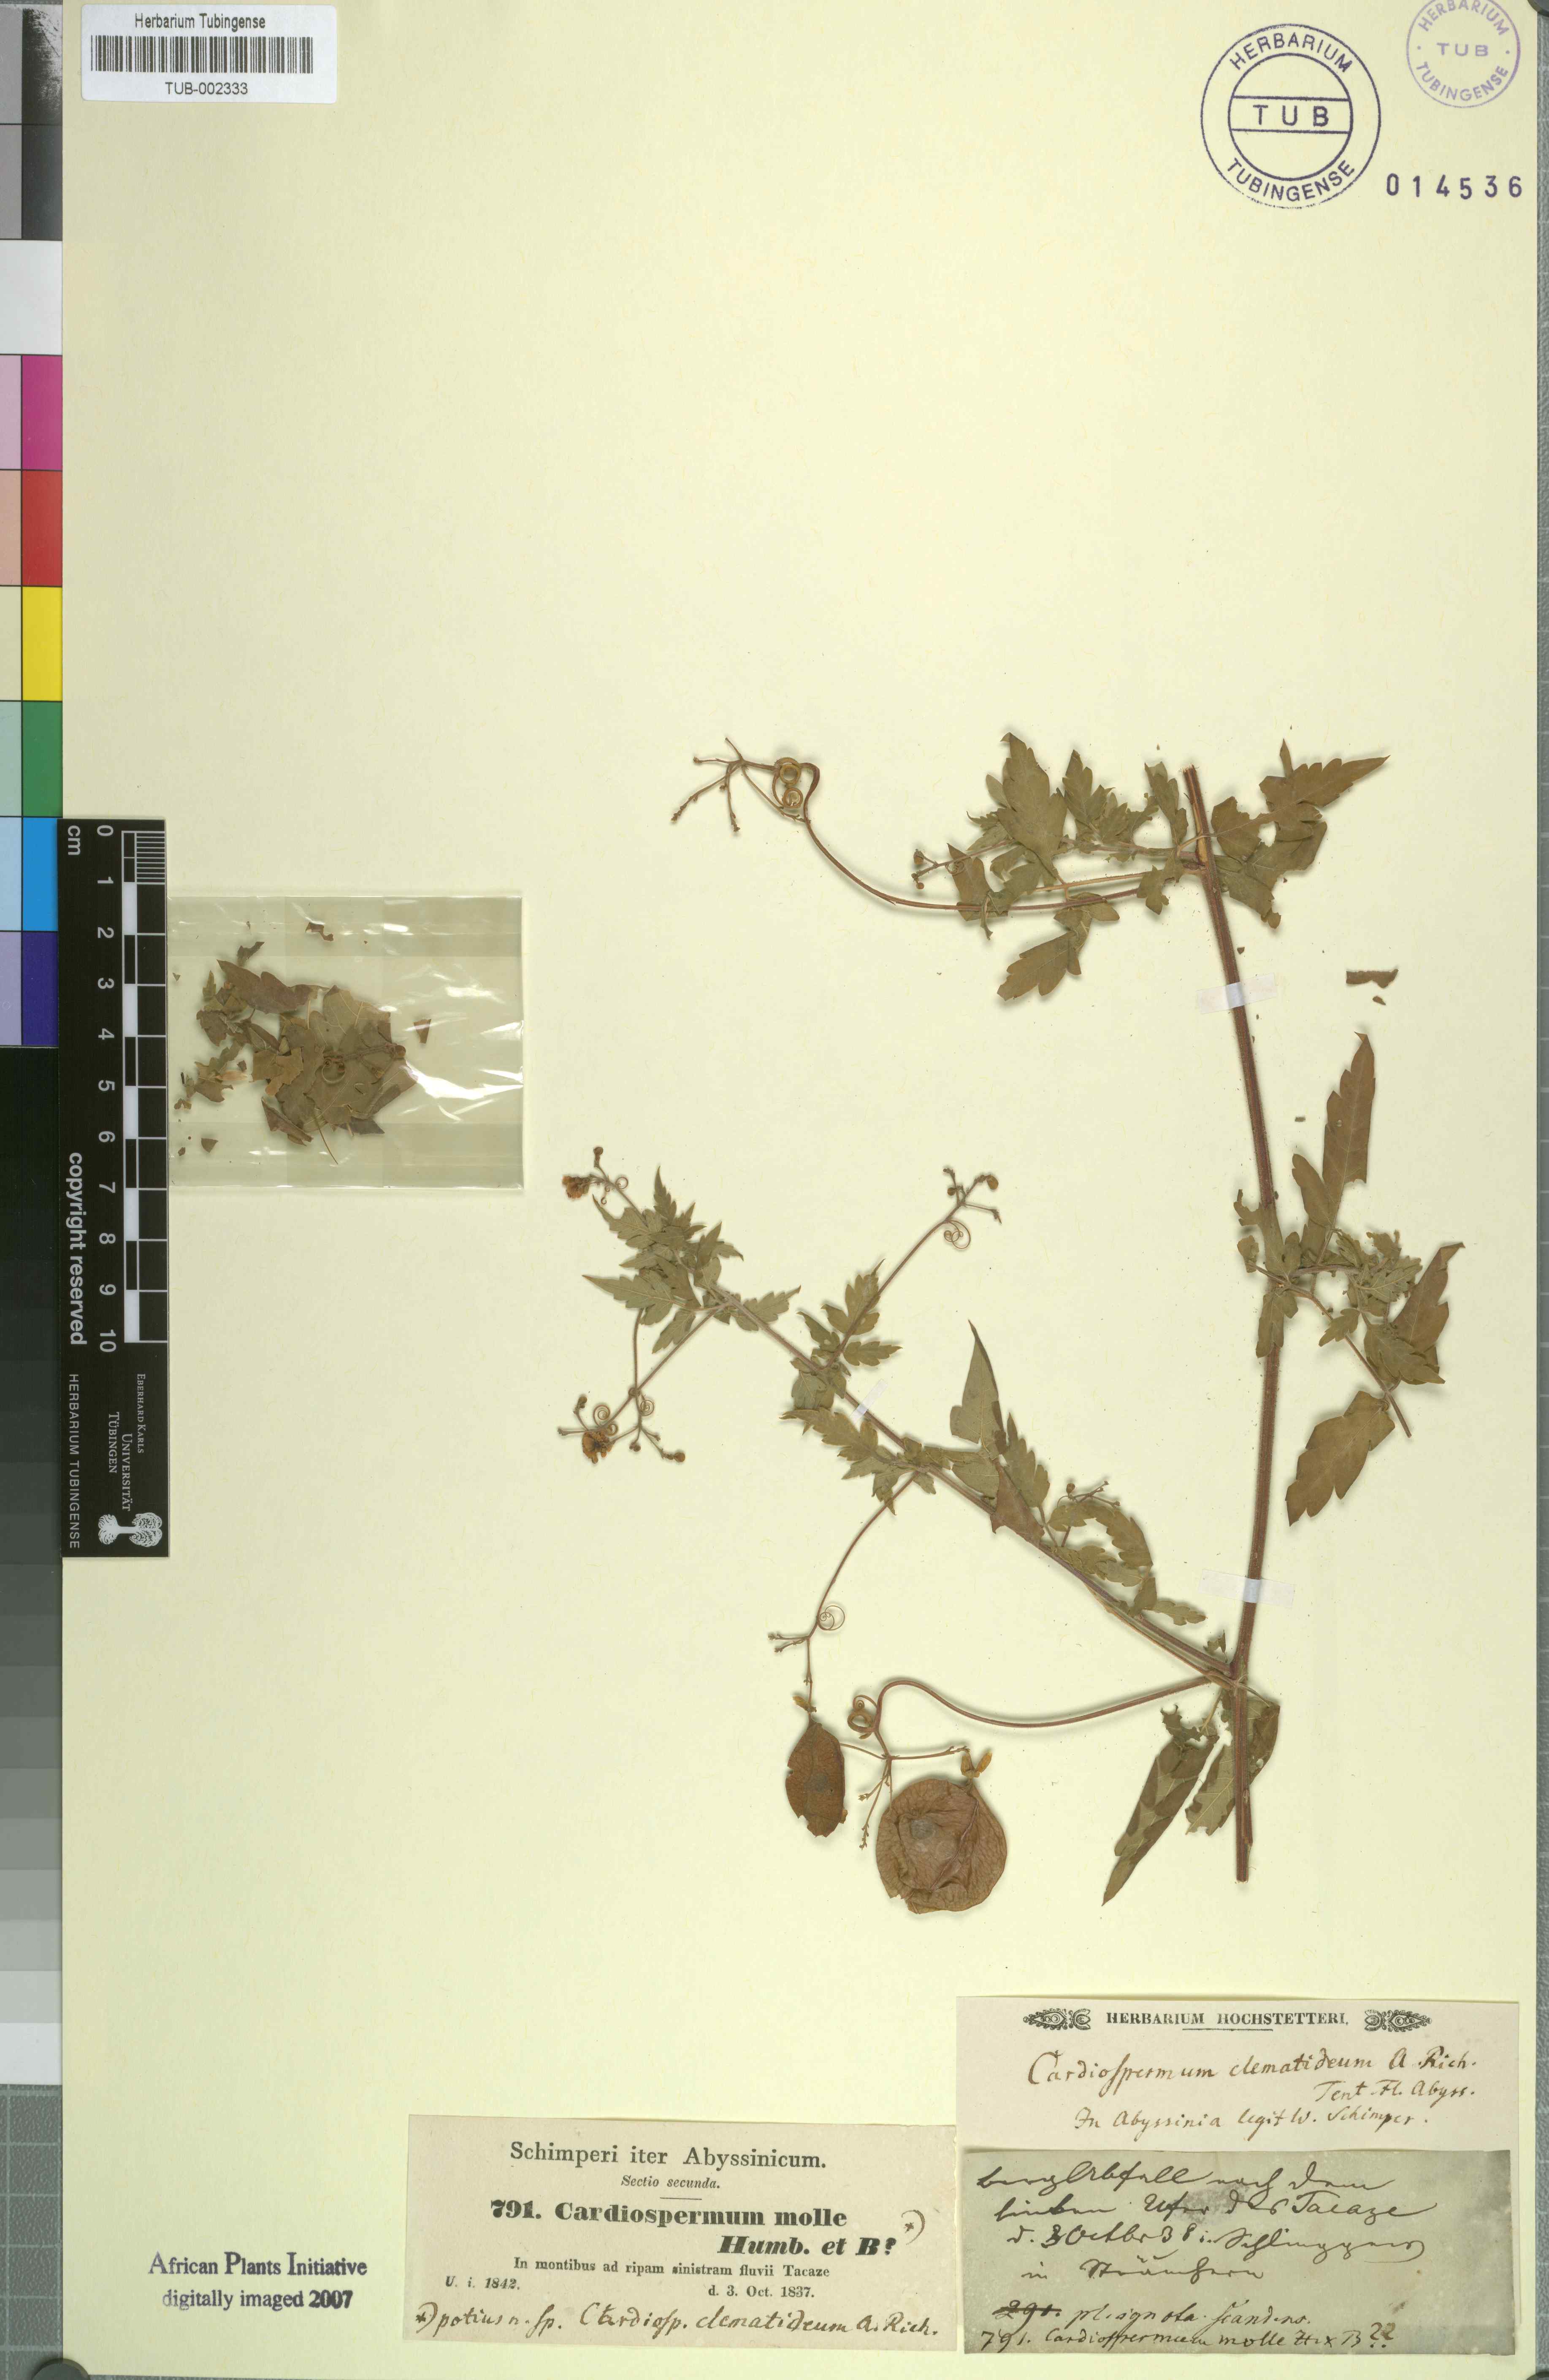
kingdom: Plantae
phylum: Tracheophyta
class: Magnoliopsida
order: Sapindales
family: Sapindaceae
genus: Cardiospermum
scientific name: Cardiospermum corindum
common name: Faux persil
